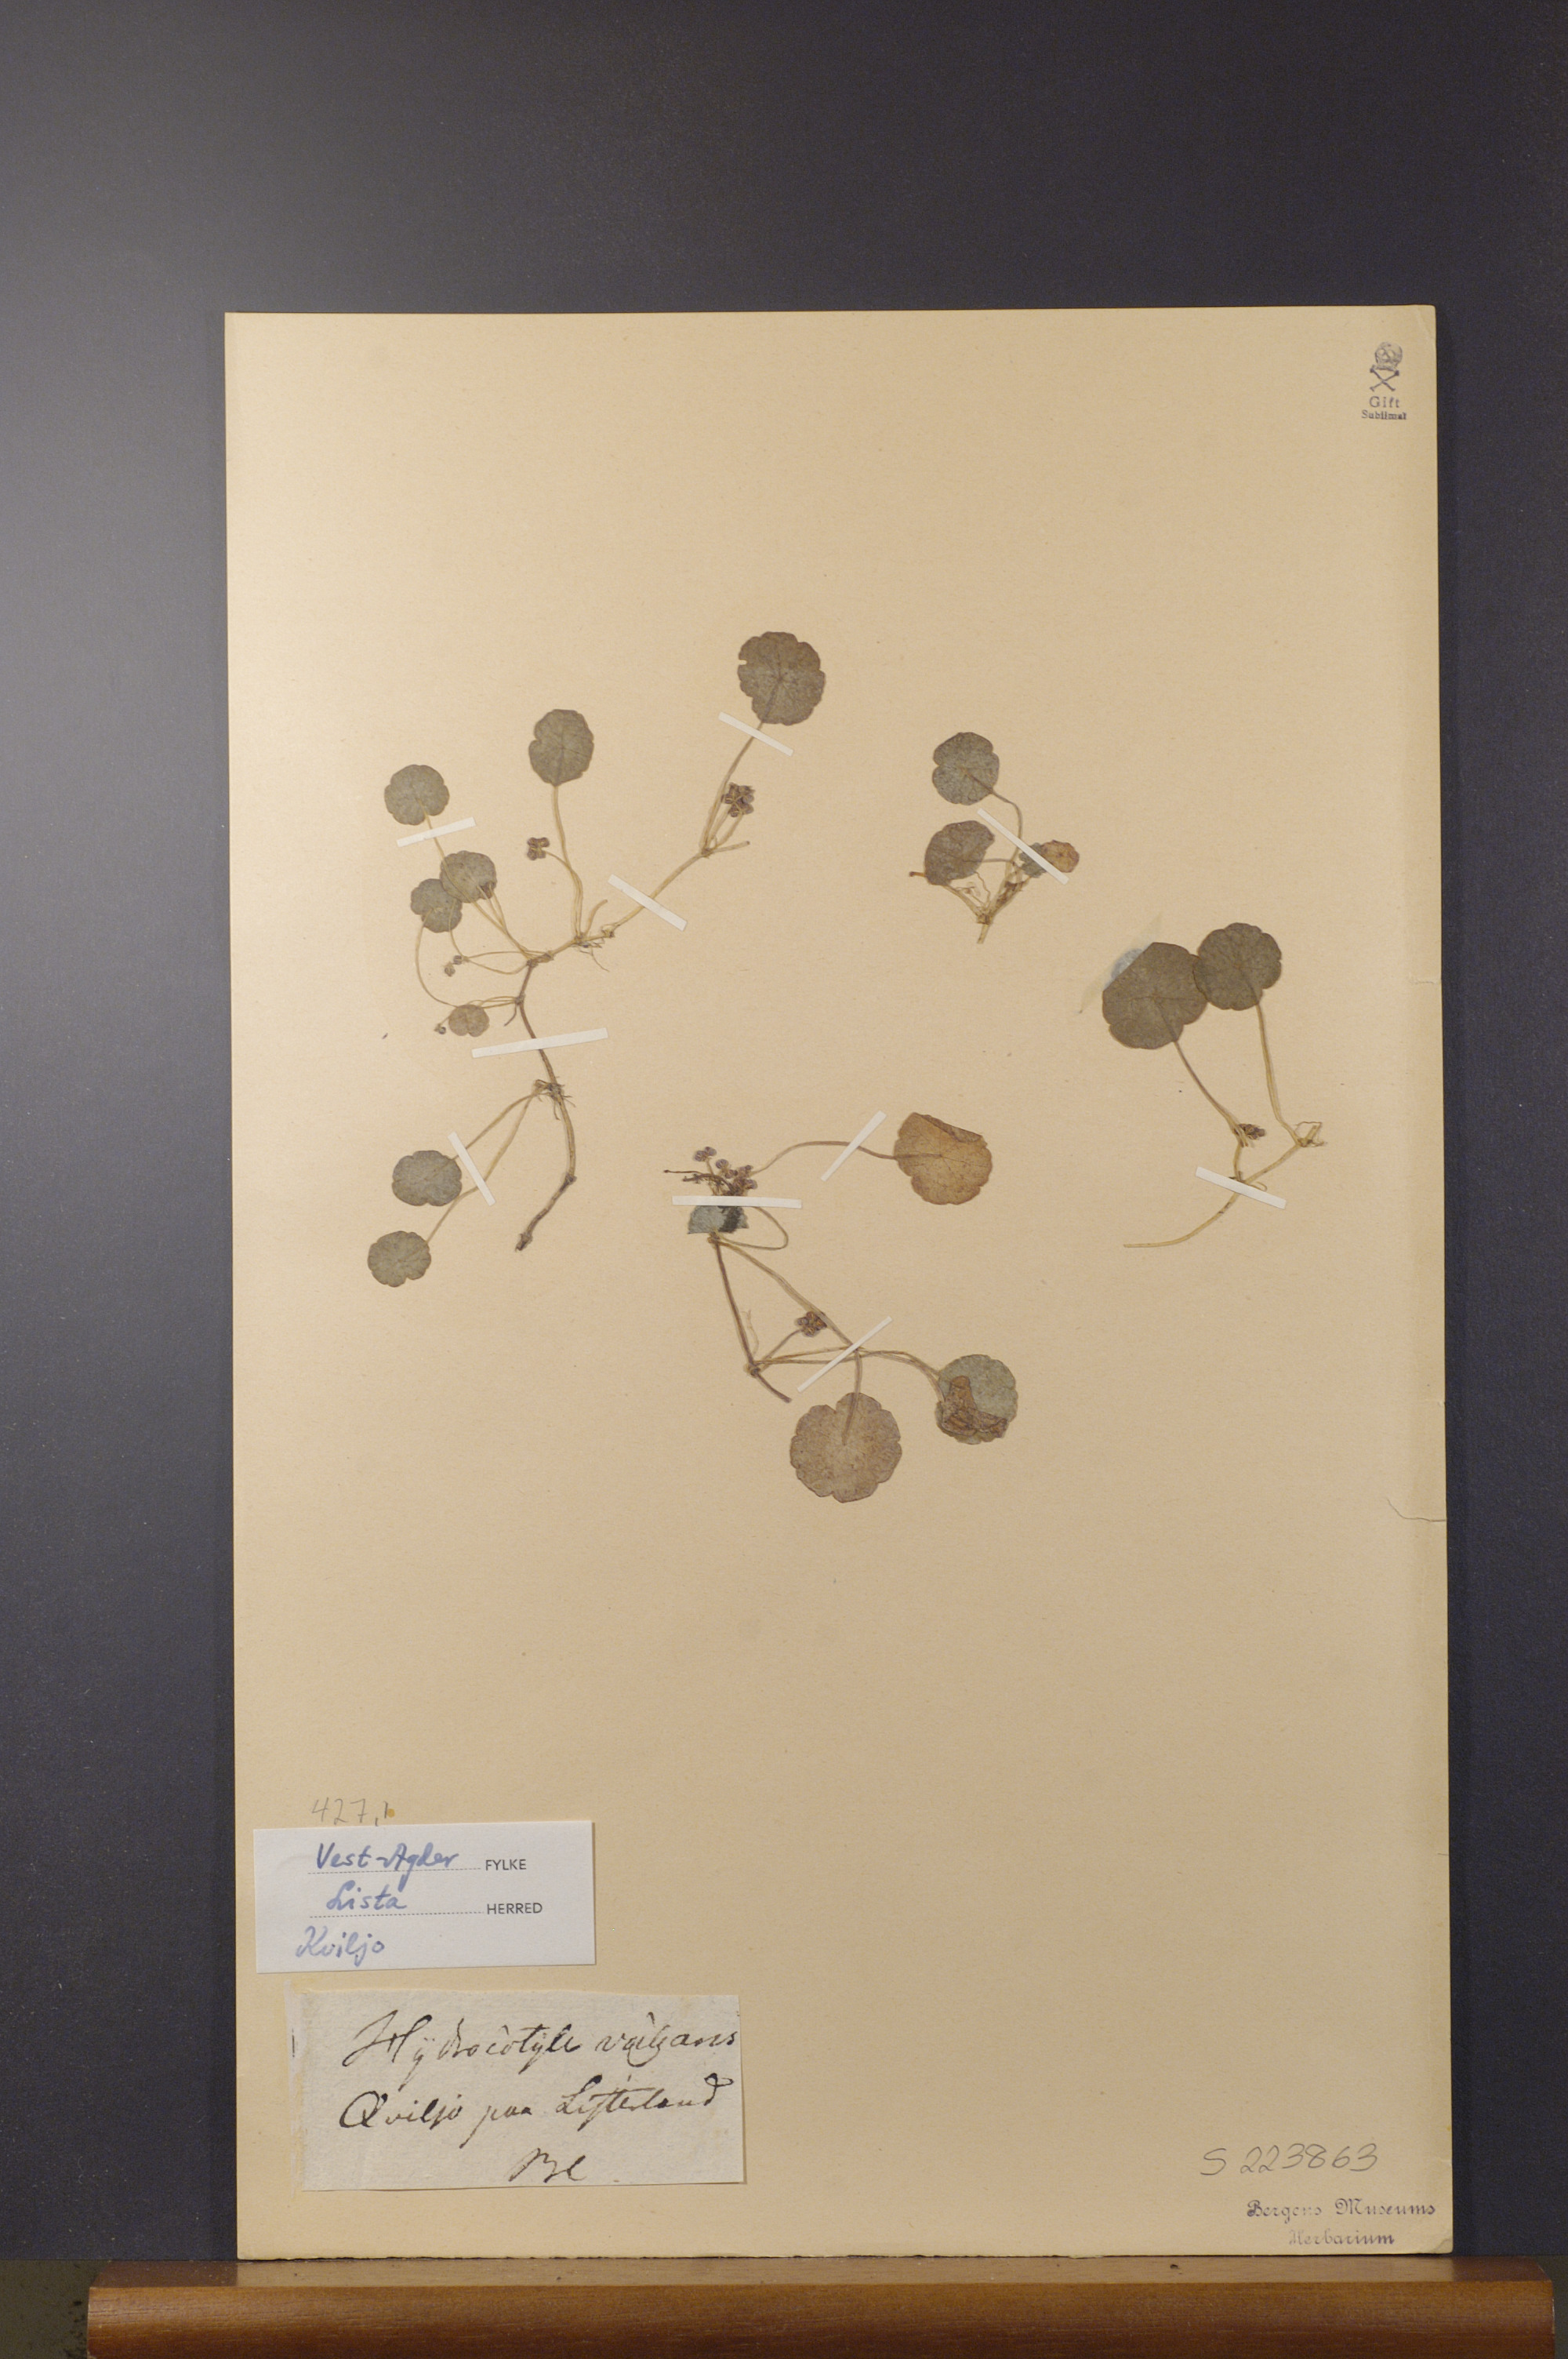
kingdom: Plantae
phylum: Tracheophyta
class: Magnoliopsida
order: Apiales
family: Araliaceae
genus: Hydrocotyle
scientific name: Hydrocotyle vulgaris
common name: Marsh pennywort
